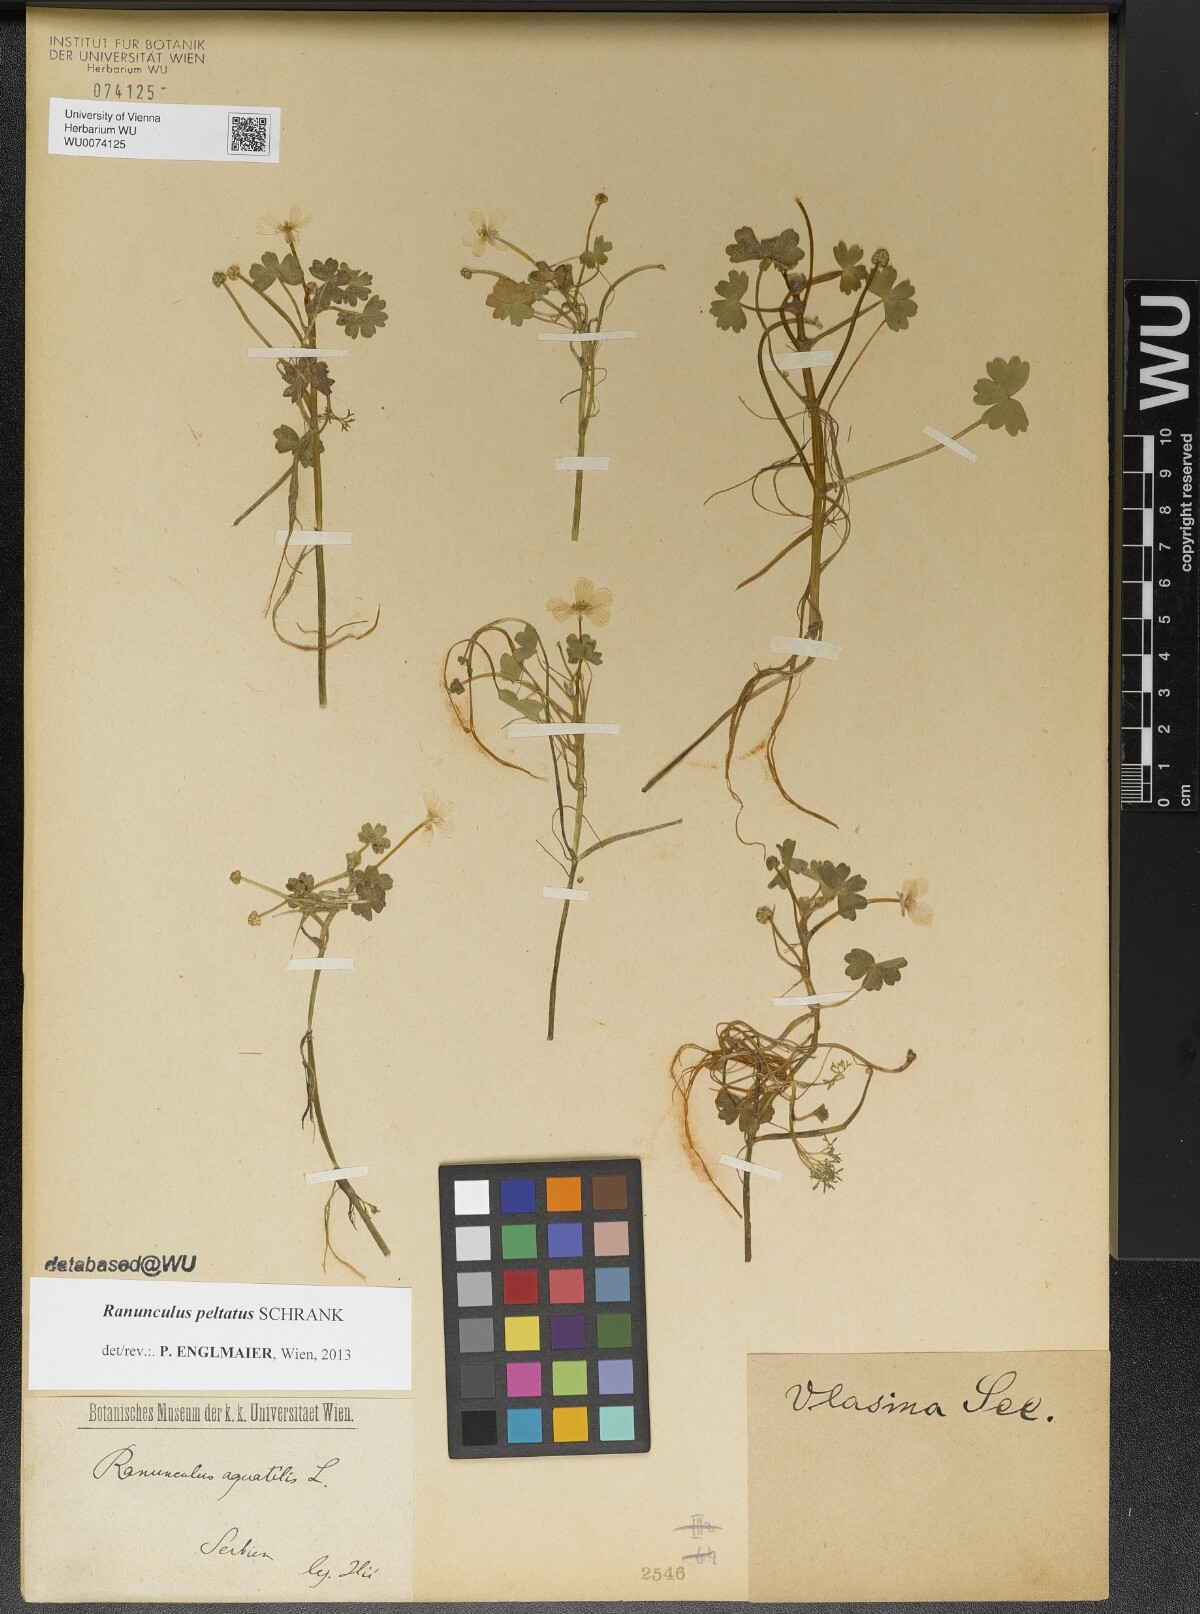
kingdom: Plantae
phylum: Tracheophyta
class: Magnoliopsida
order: Ranunculales
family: Ranunculaceae
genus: Ranunculus
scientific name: Ranunculus peltatus
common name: Pond water-crowfoot
